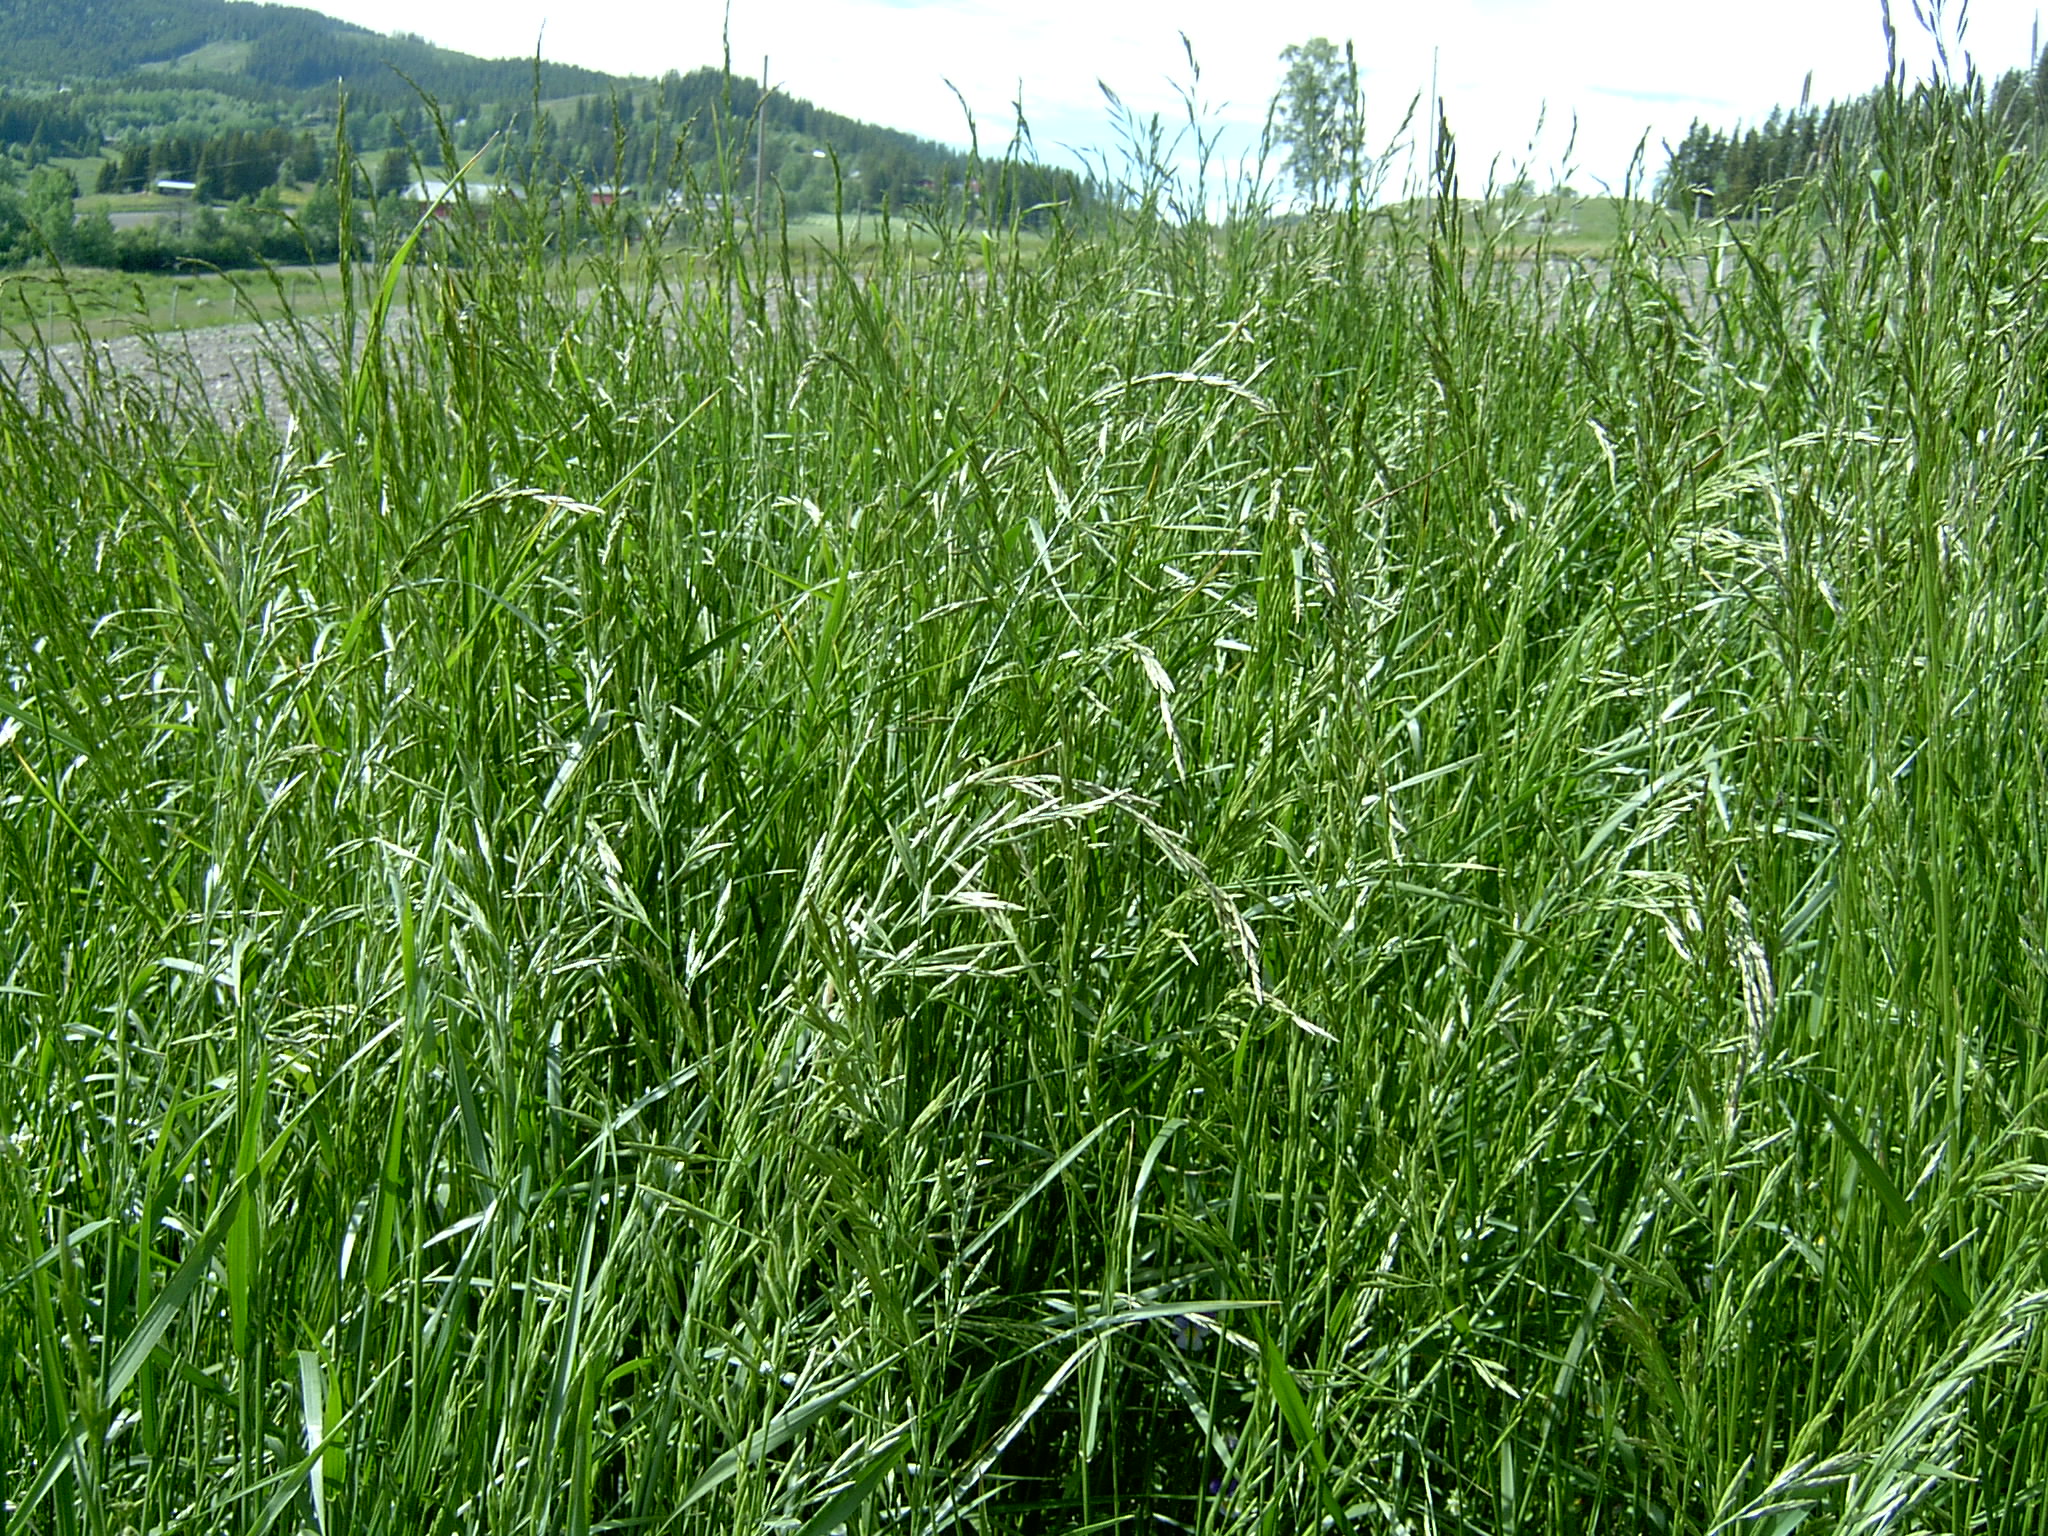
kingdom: Plantae
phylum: Tracheophyta
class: Liliopsida
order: Poales
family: Poaceae
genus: Lolium
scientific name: Lolium pratense
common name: Dover grass
